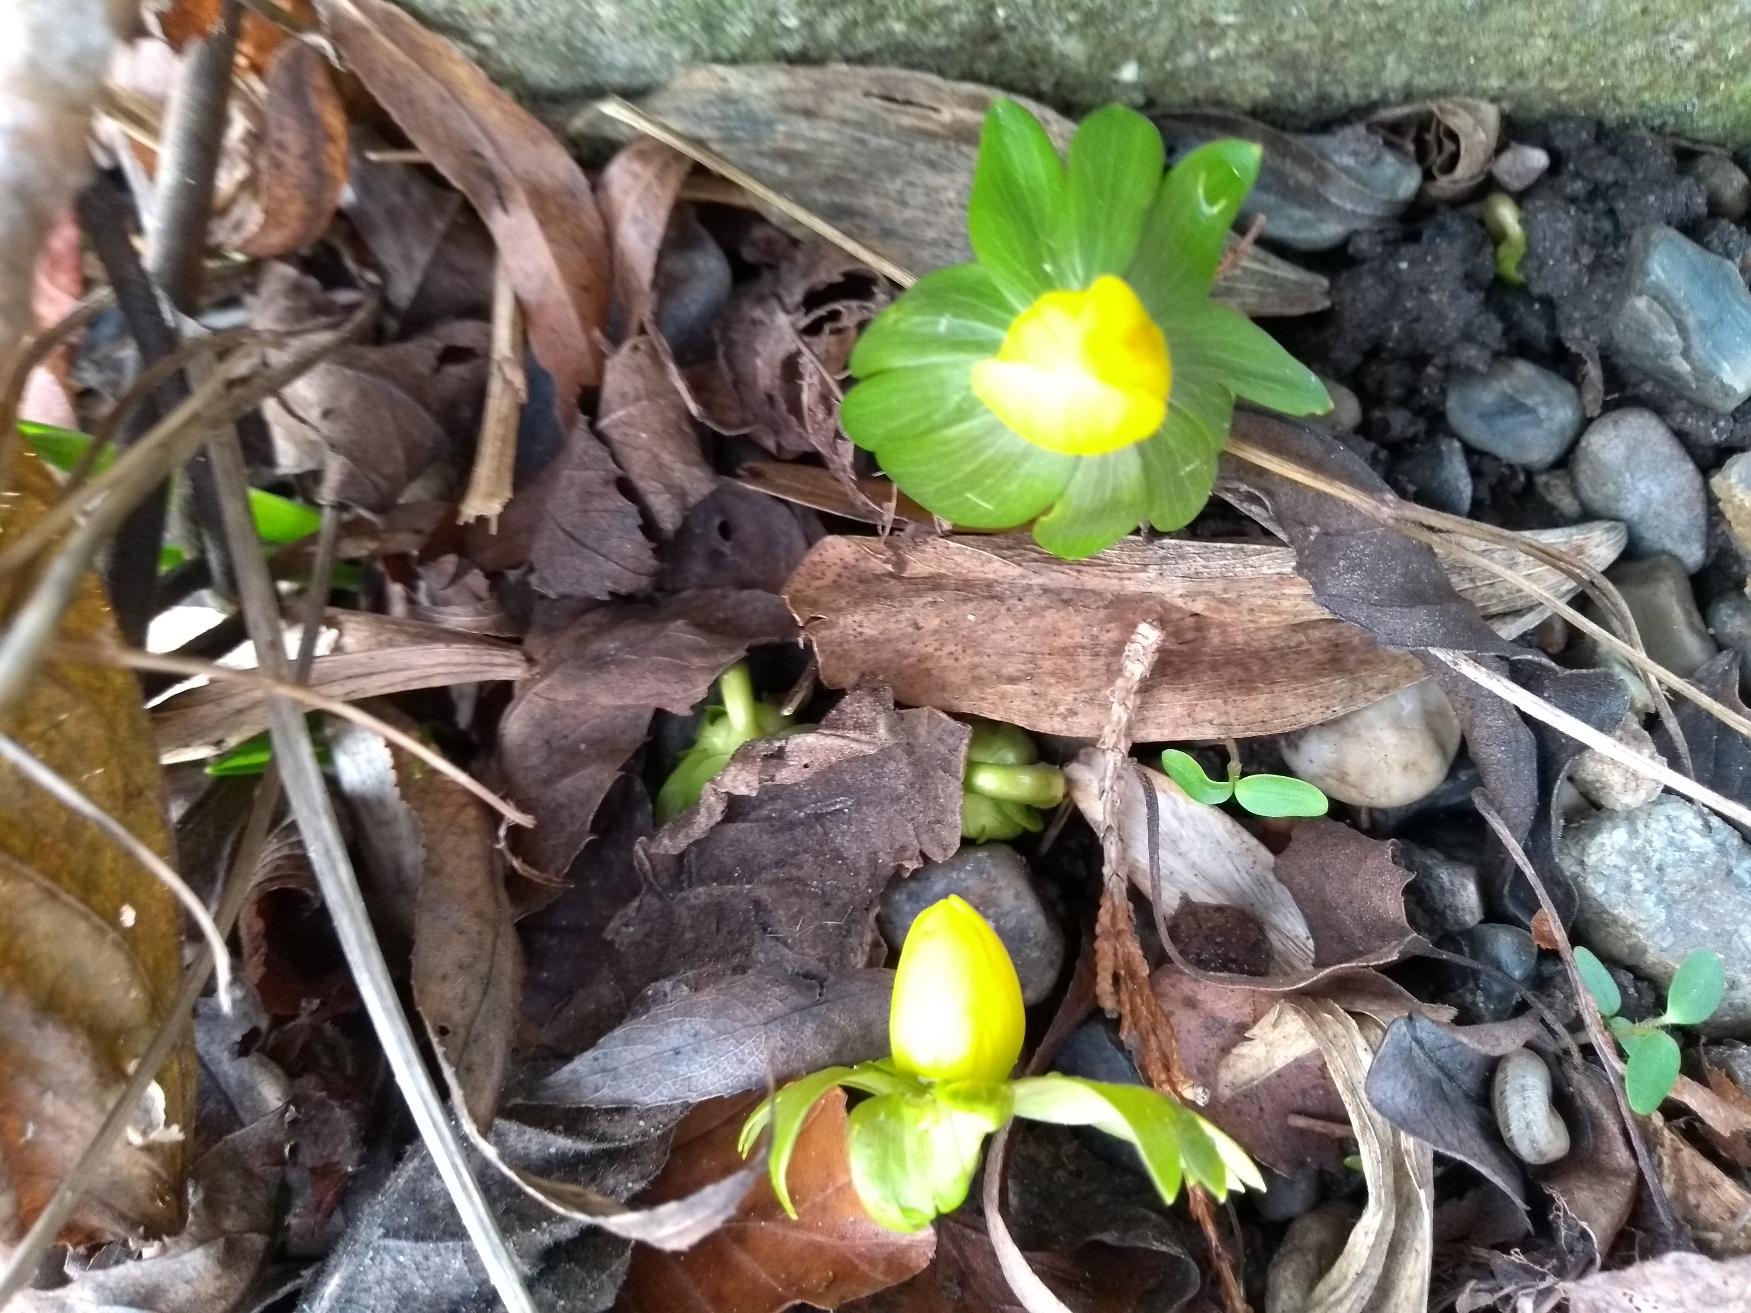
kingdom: Plantae
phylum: Tracheophyta
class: Magnoliopsida
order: Ranunculales
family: Ranunculaceae
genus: Eranthis
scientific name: Eranthis hyemalis
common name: Erantis
